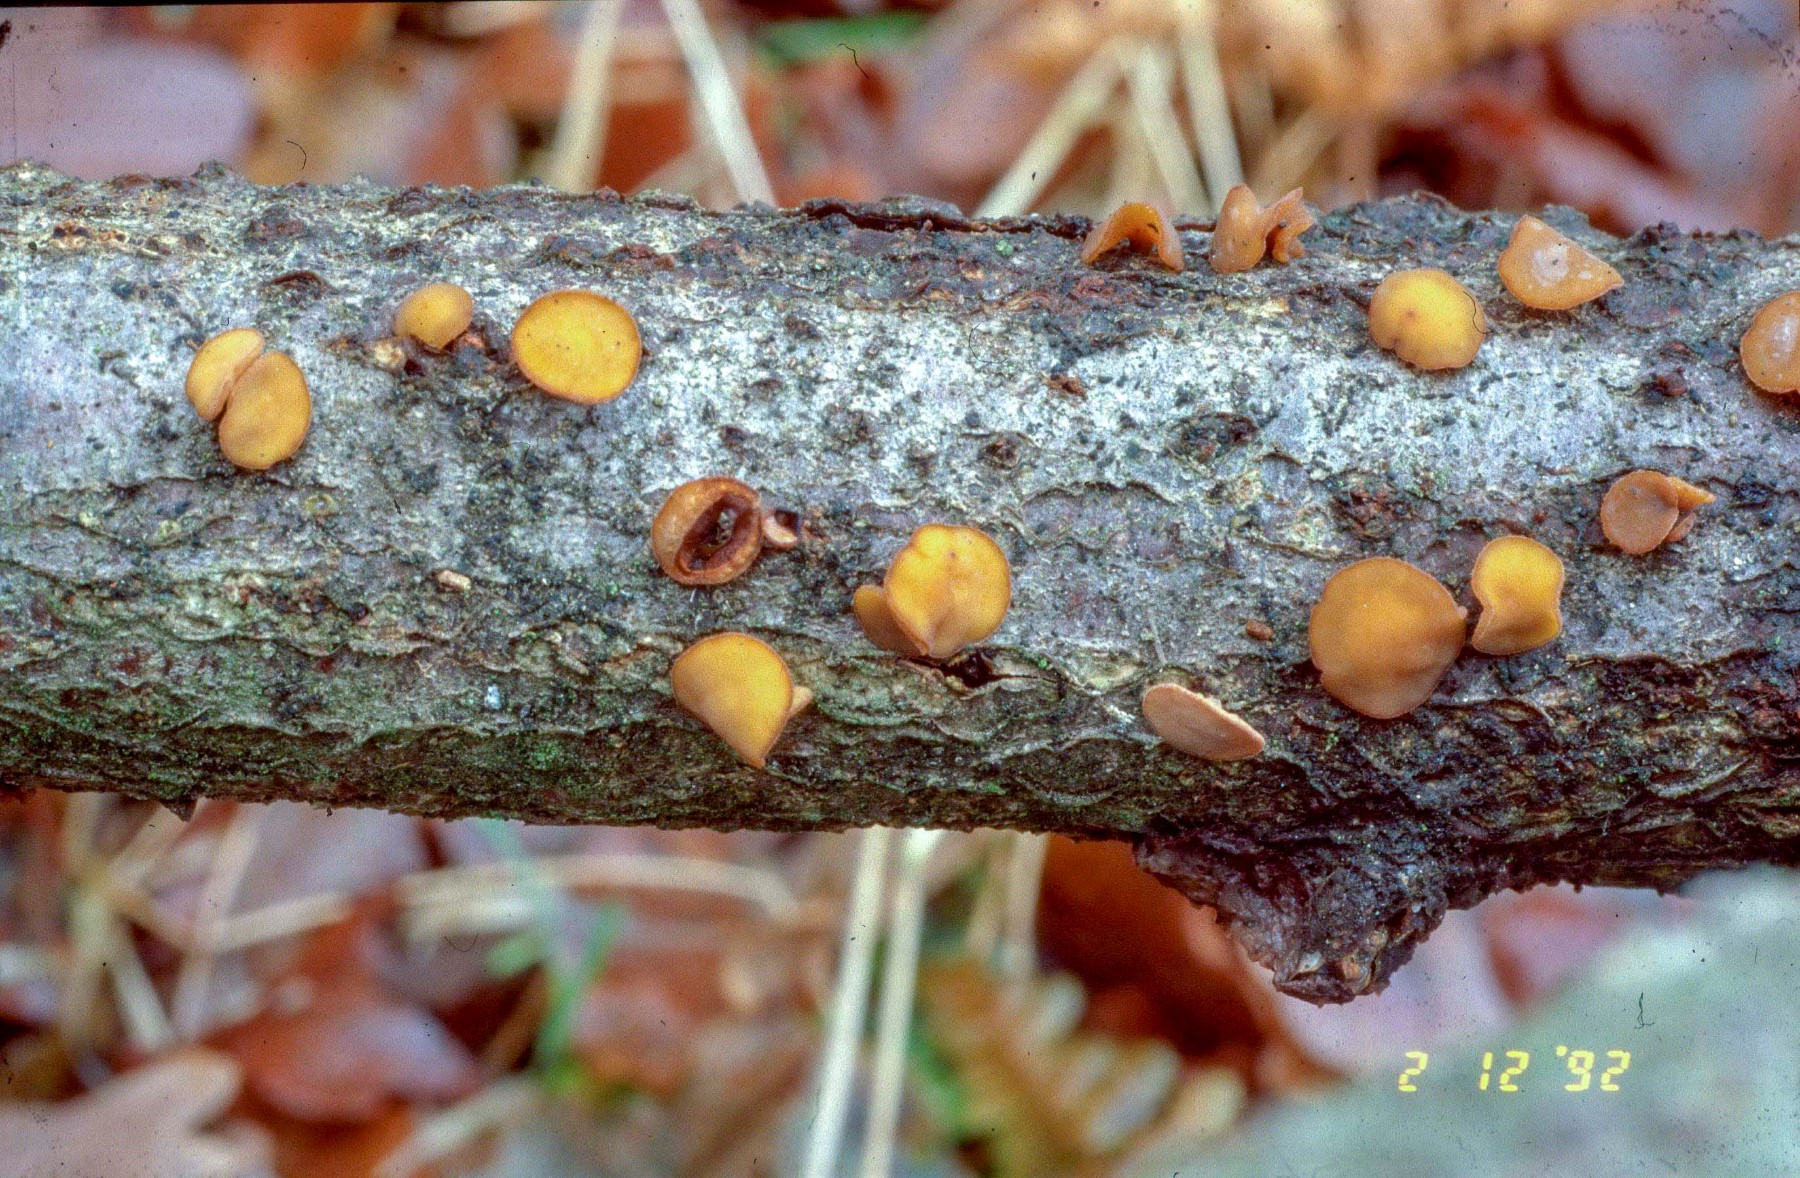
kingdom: Fungi
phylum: Ascomycota
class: Leotiomycetes
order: Helotiales
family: Rutstroemiaceae
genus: Rutstroemia
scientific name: Rutstroemia firma
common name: gren-brunskive
